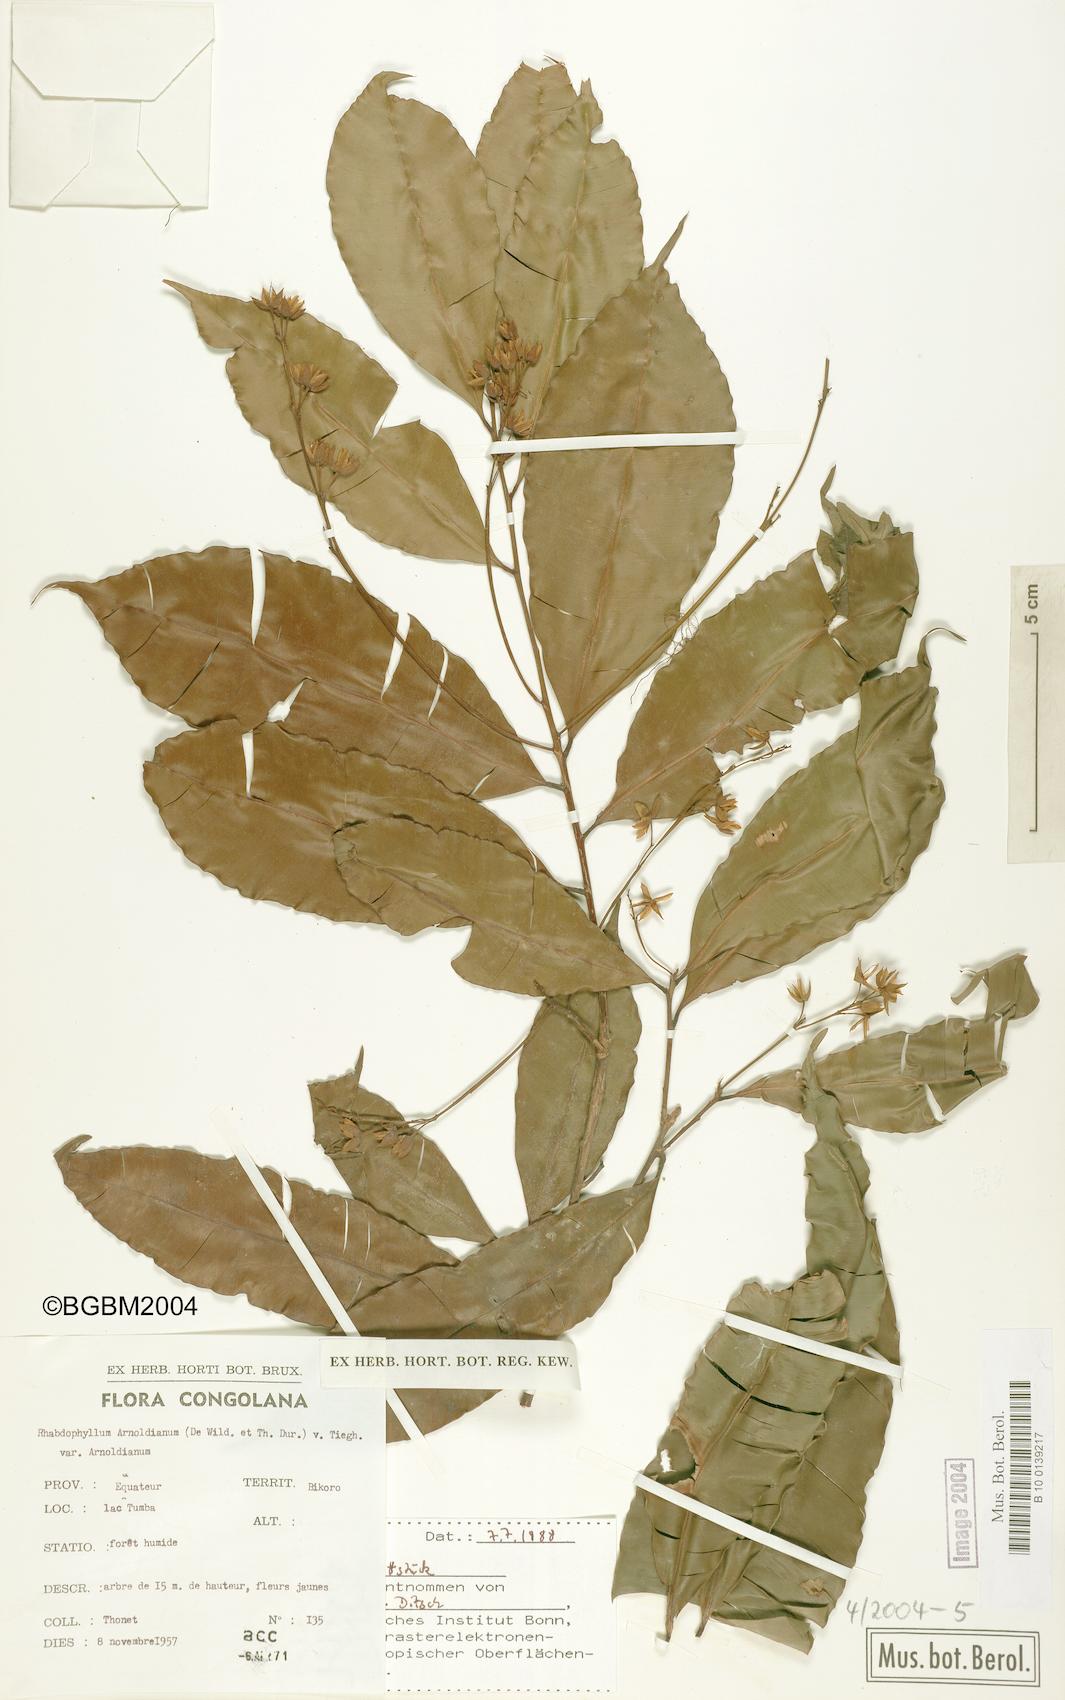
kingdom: Plantae
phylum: Tracheophyta
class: Magnoliopsida
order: Malpighiales
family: Ochnaceae
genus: Rhabdophyllum
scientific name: Rhabdophyllum arnoldianum
